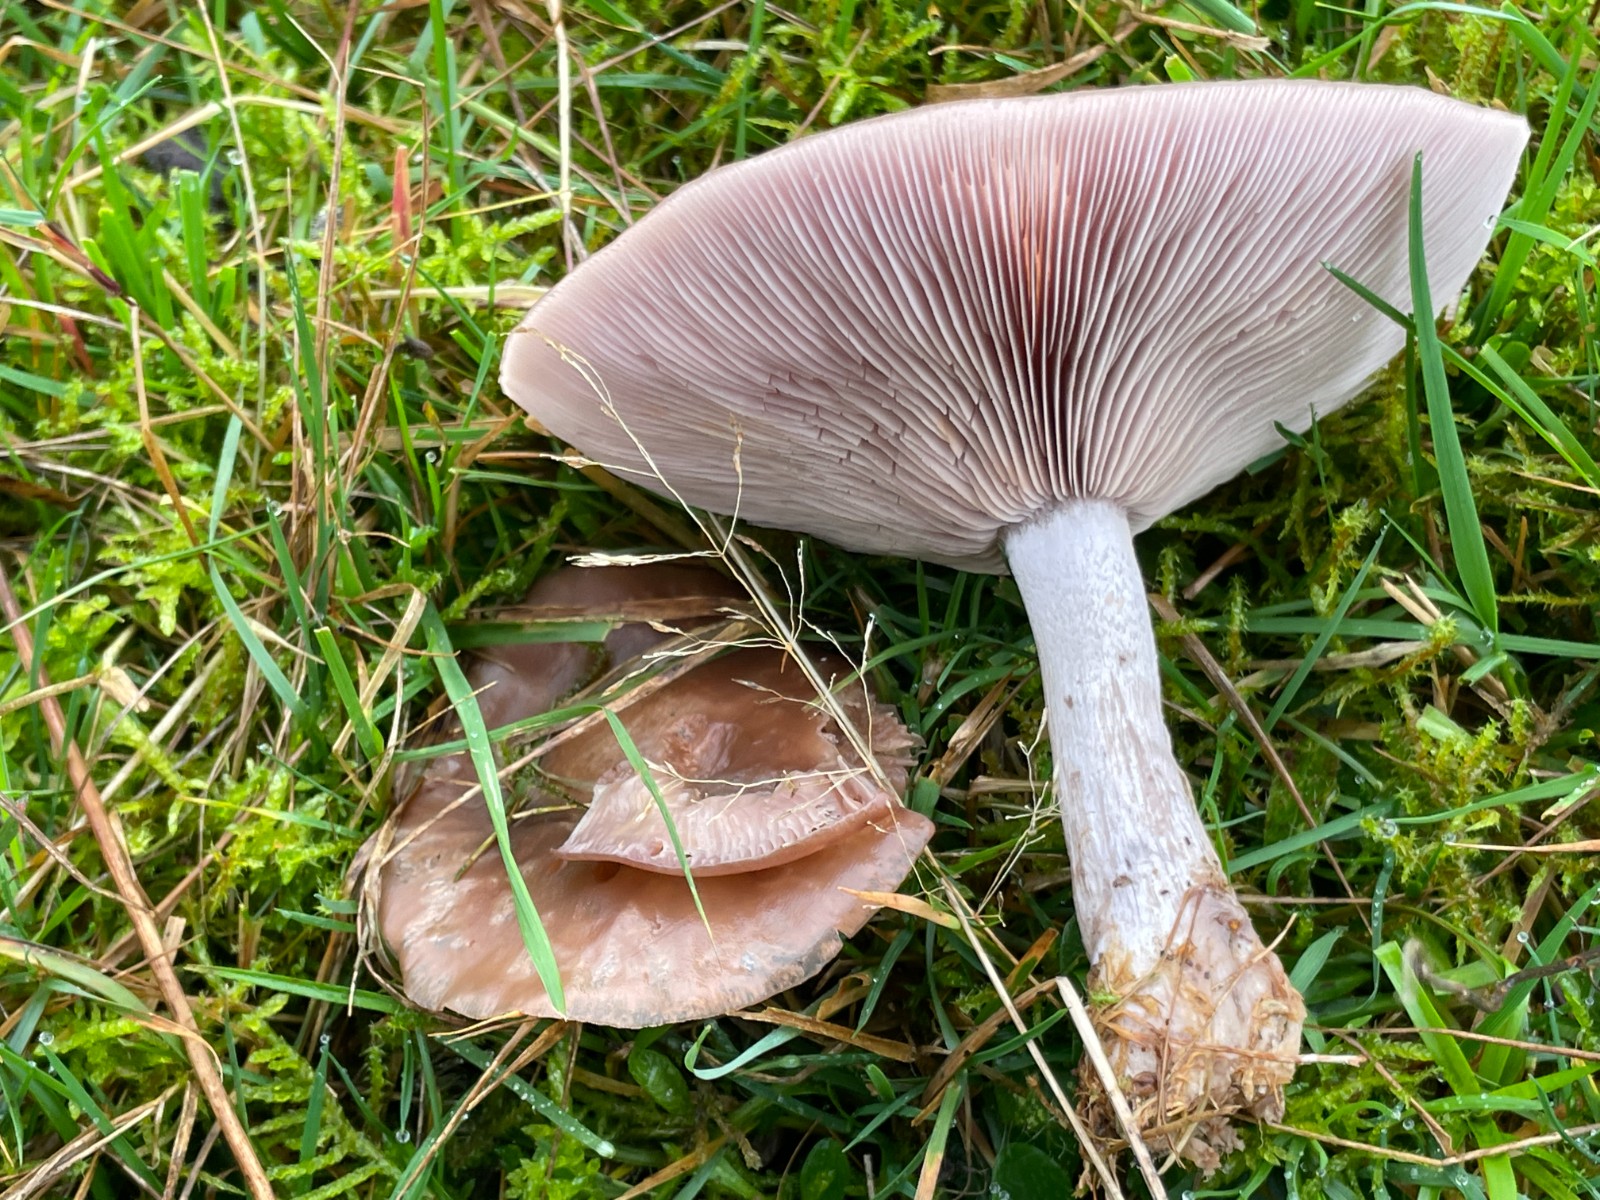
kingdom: Fungi
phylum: Basidiomycota
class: Agaricomycetes
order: Agaricales
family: Tricholomataceae
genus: Lepista
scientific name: Lepista nuda
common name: violet hekseringshat
